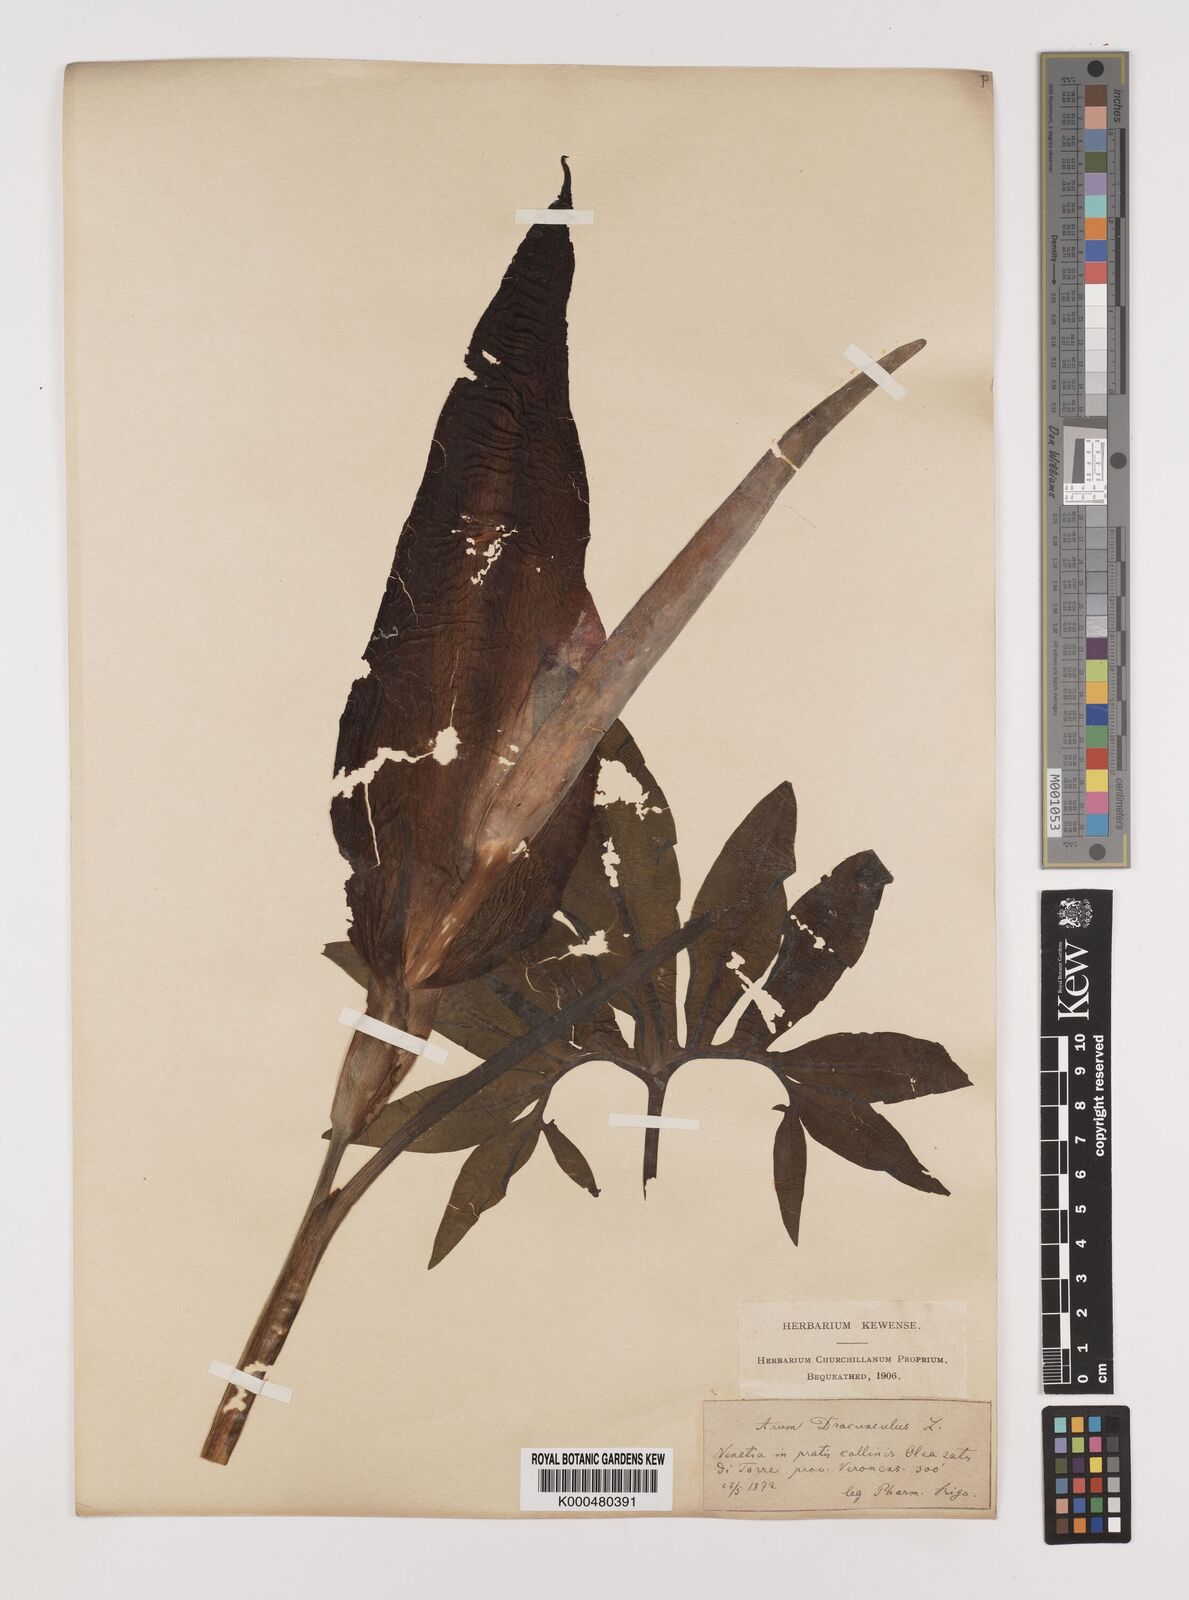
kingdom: Plantae
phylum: Tracheophyta
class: Liliopsida
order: Alismatales
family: Araceae
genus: Arum
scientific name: Arum
